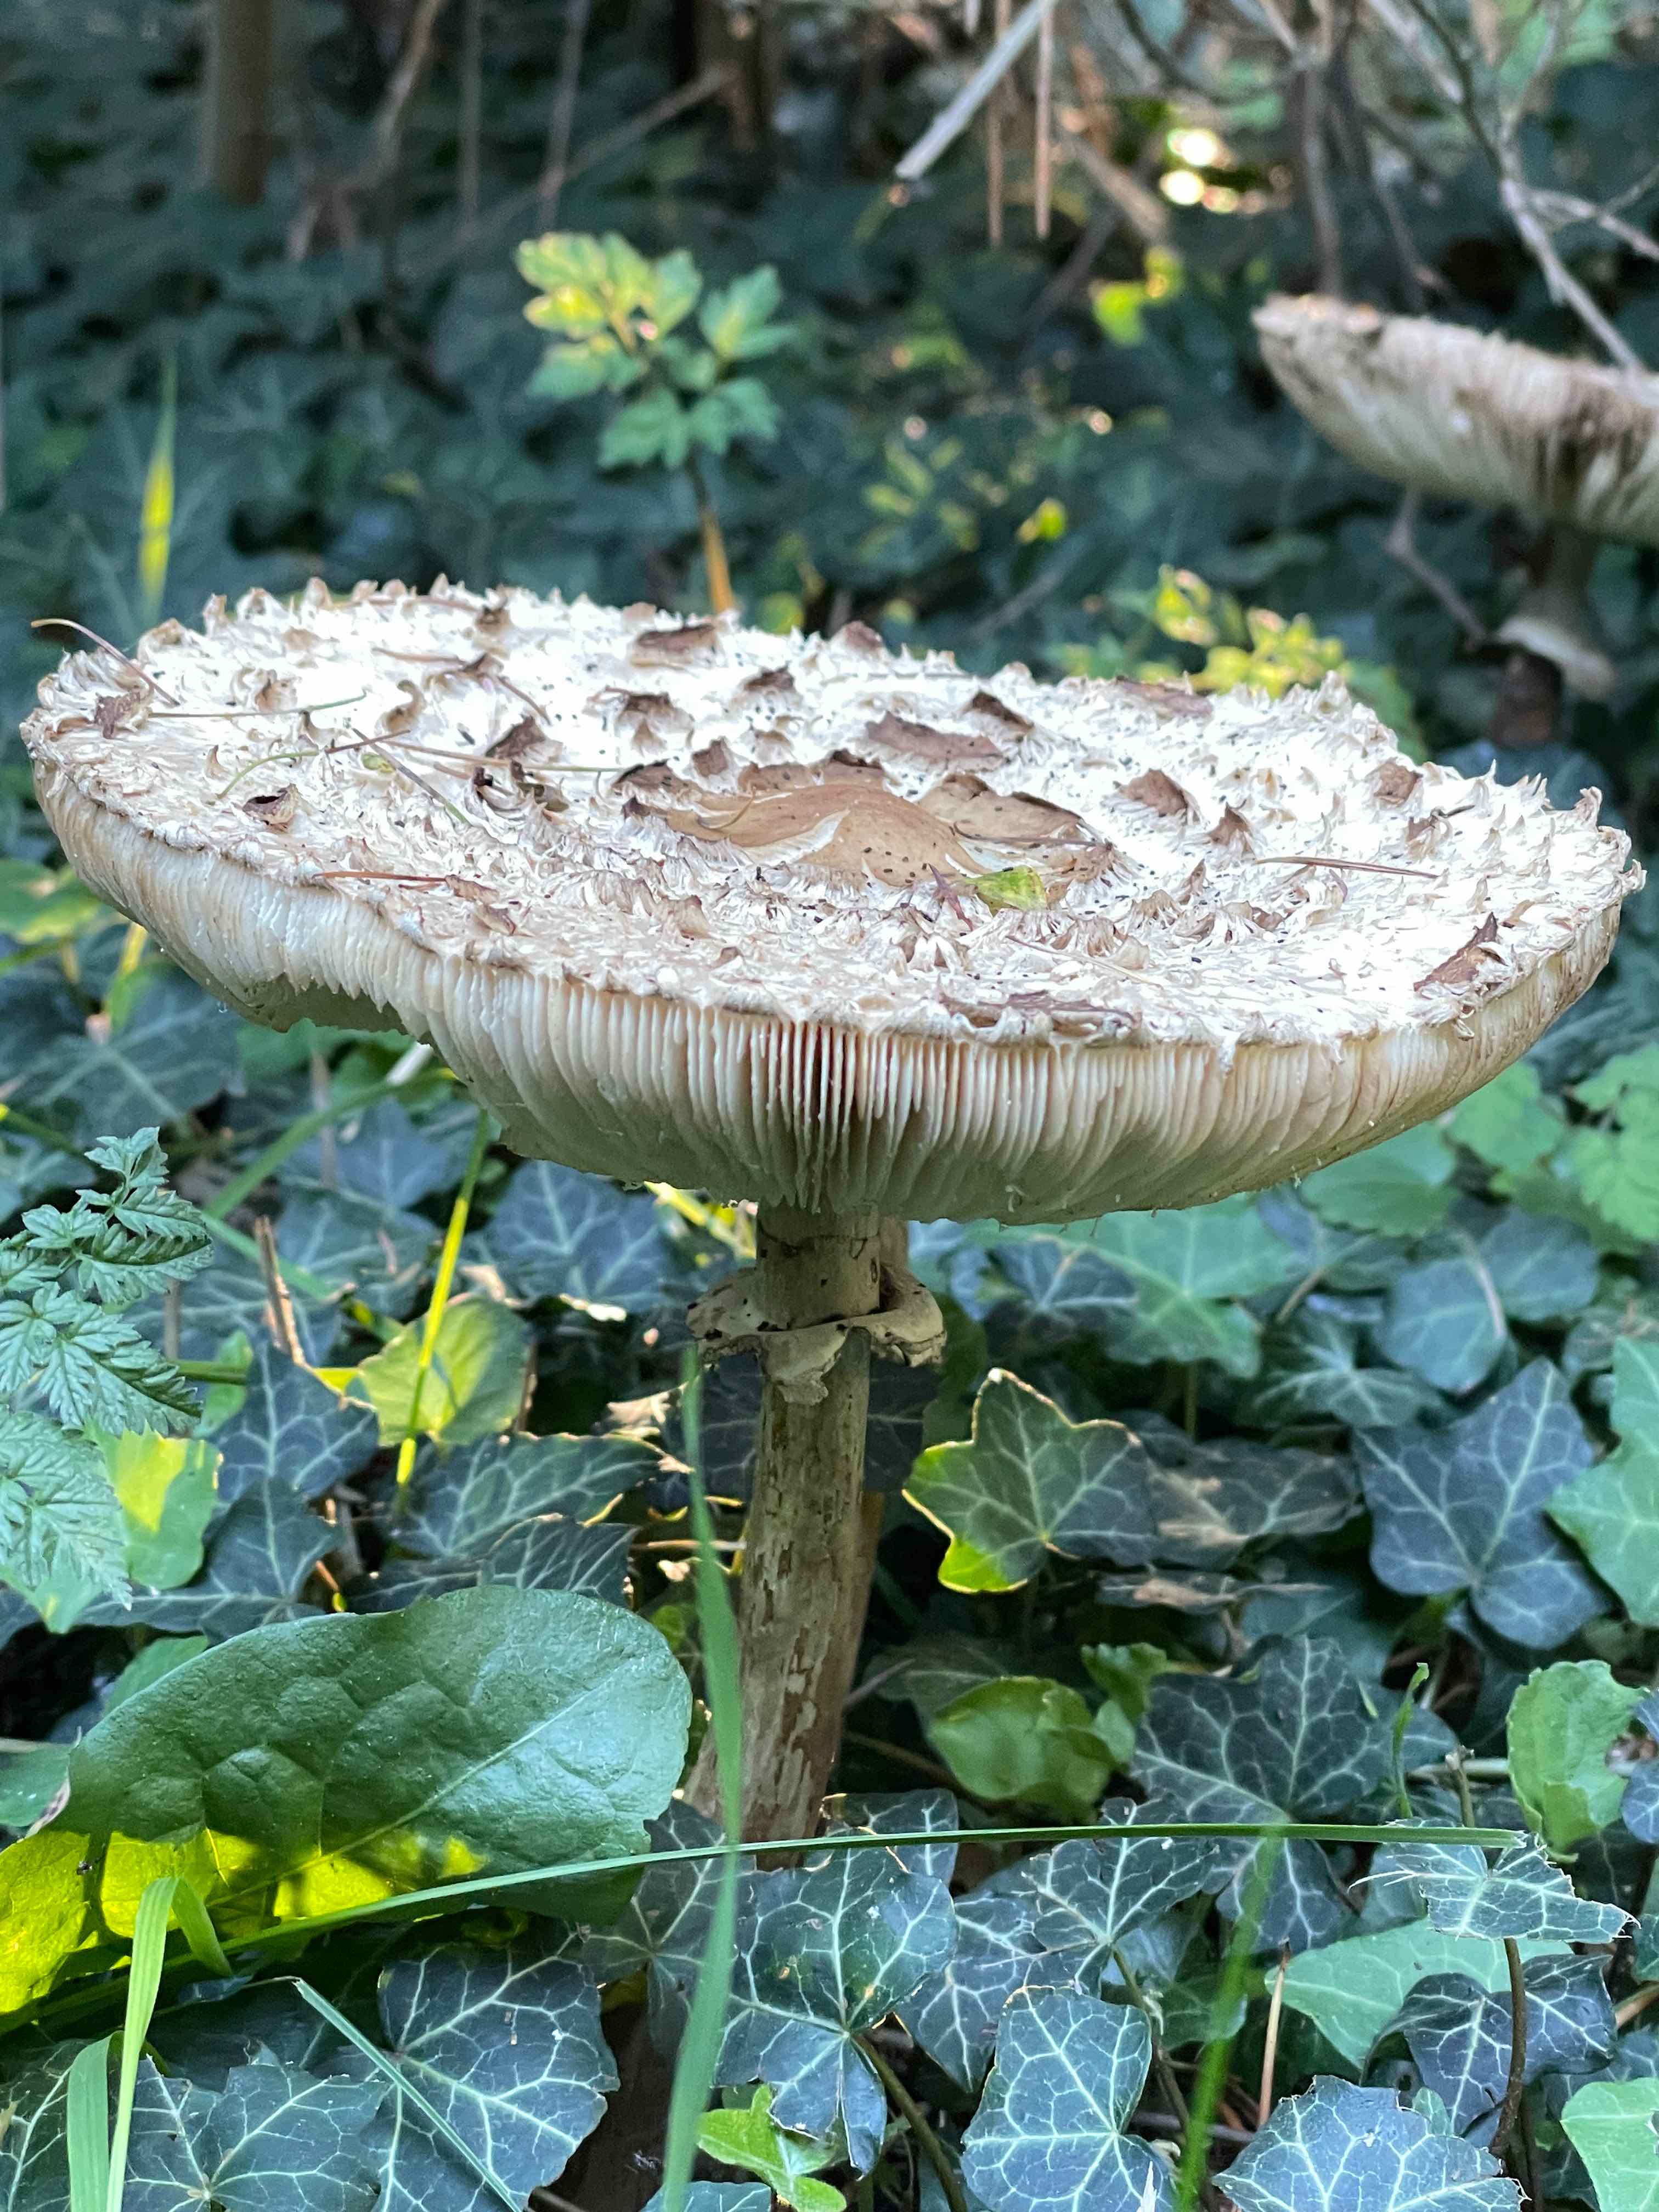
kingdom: Fungi
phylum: Basidiomycota
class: Agaricomycetes
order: Agaricales
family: Agaricaceae
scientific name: Agaricaceae
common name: champignonfamilien
